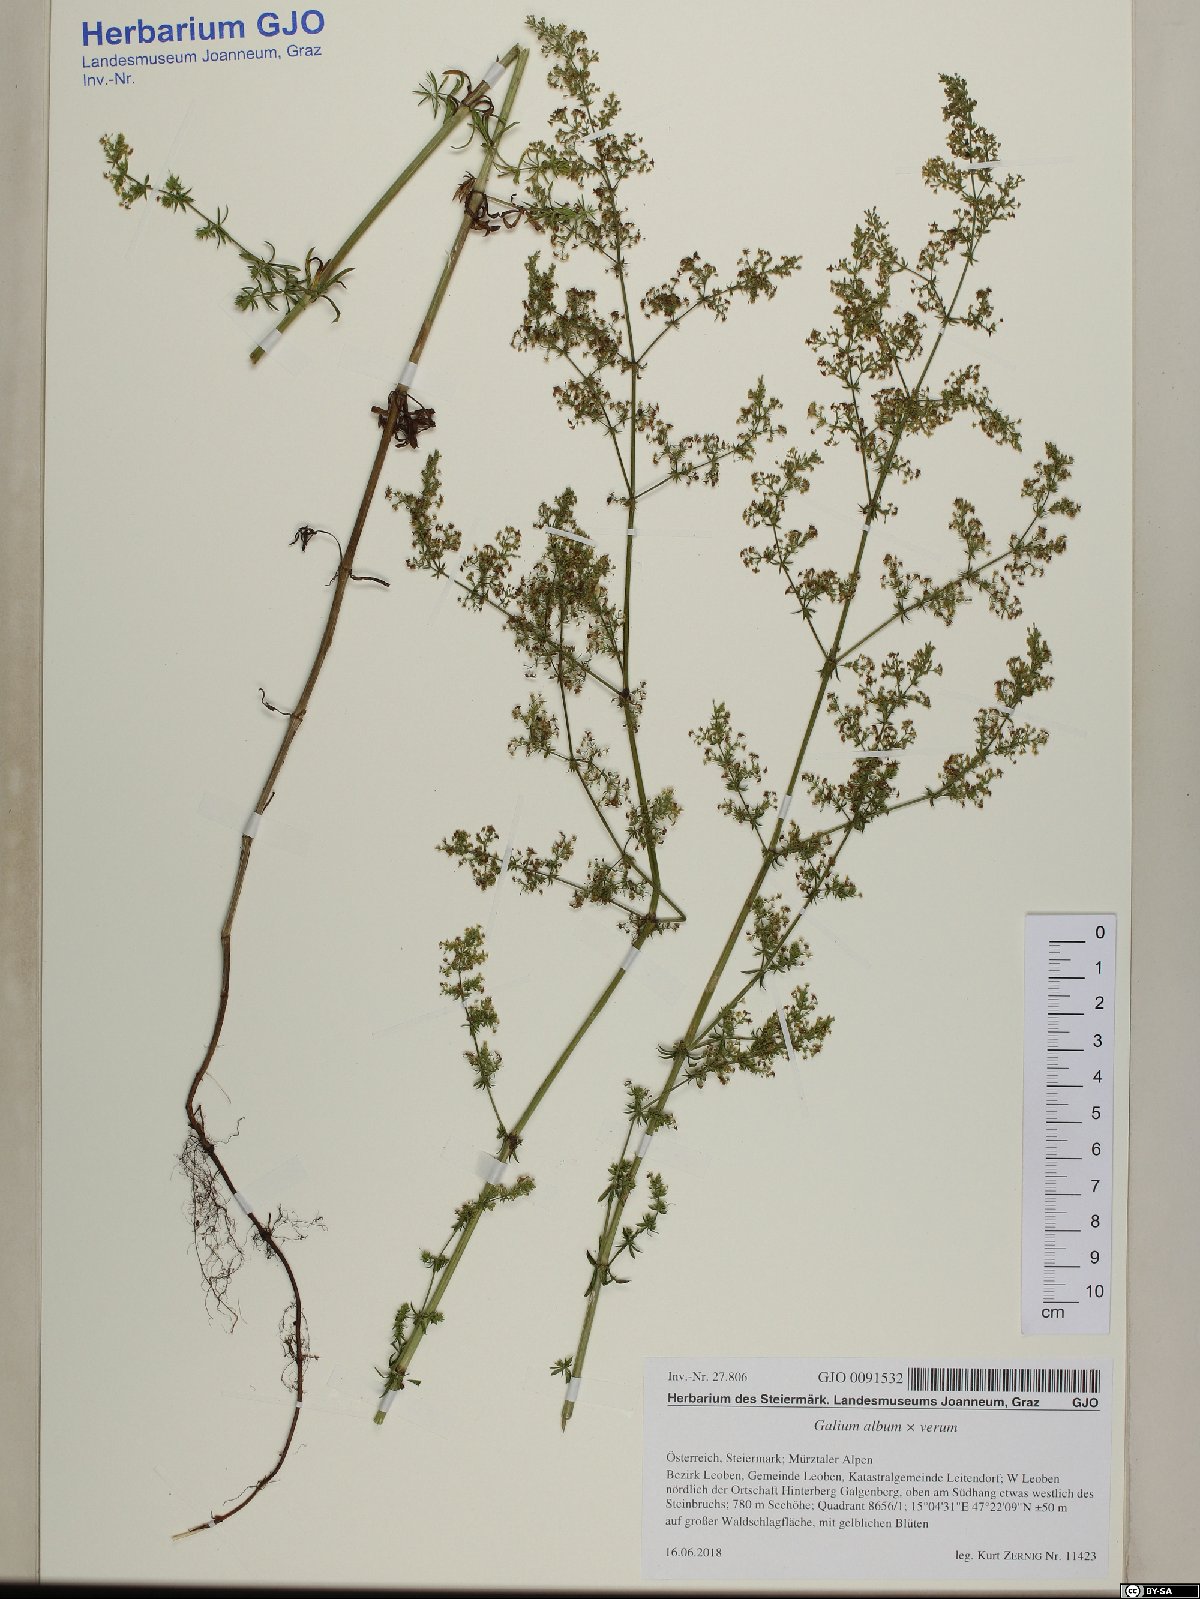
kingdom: Plantae
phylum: Tracheophyta
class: Magnoliopsida
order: Gentianales
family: Rubiaceae
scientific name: Rubiaceae
